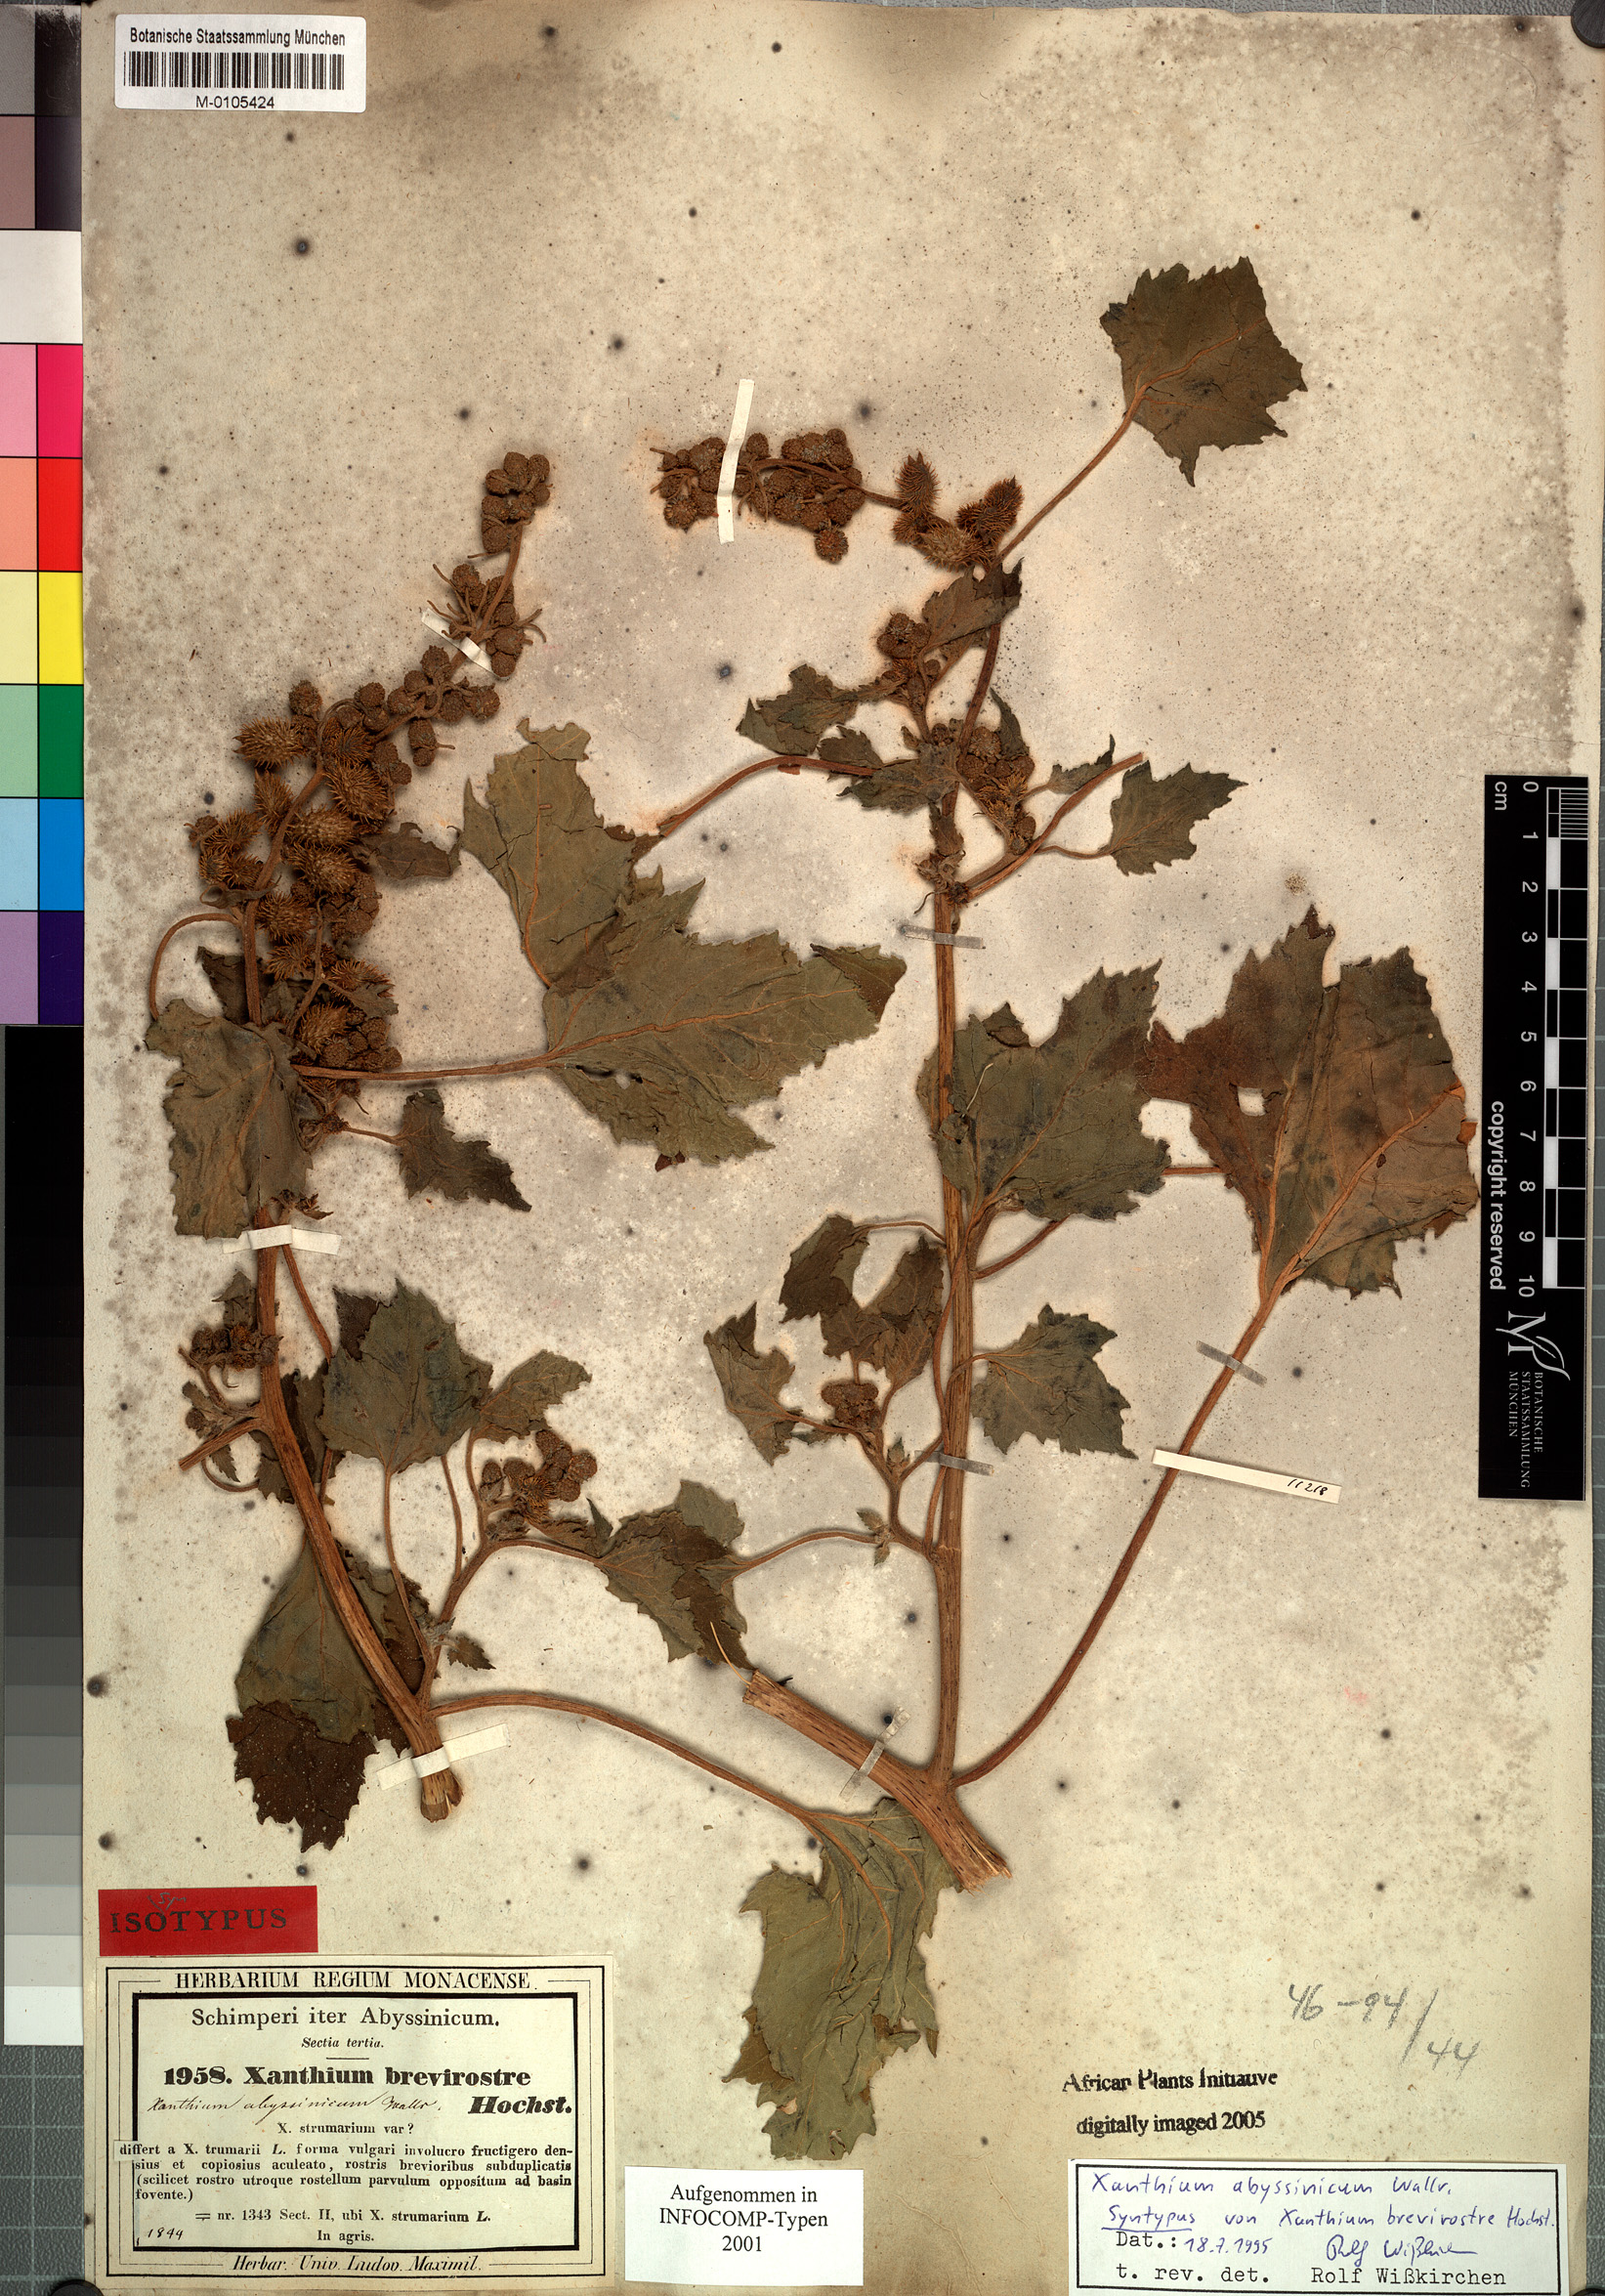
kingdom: Plantae
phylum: Tracheophyta
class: Magnoliopsida
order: Asterales
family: Asteraceae
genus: Xanthium
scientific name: Xanthium strumarium
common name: Rough cocklebur
